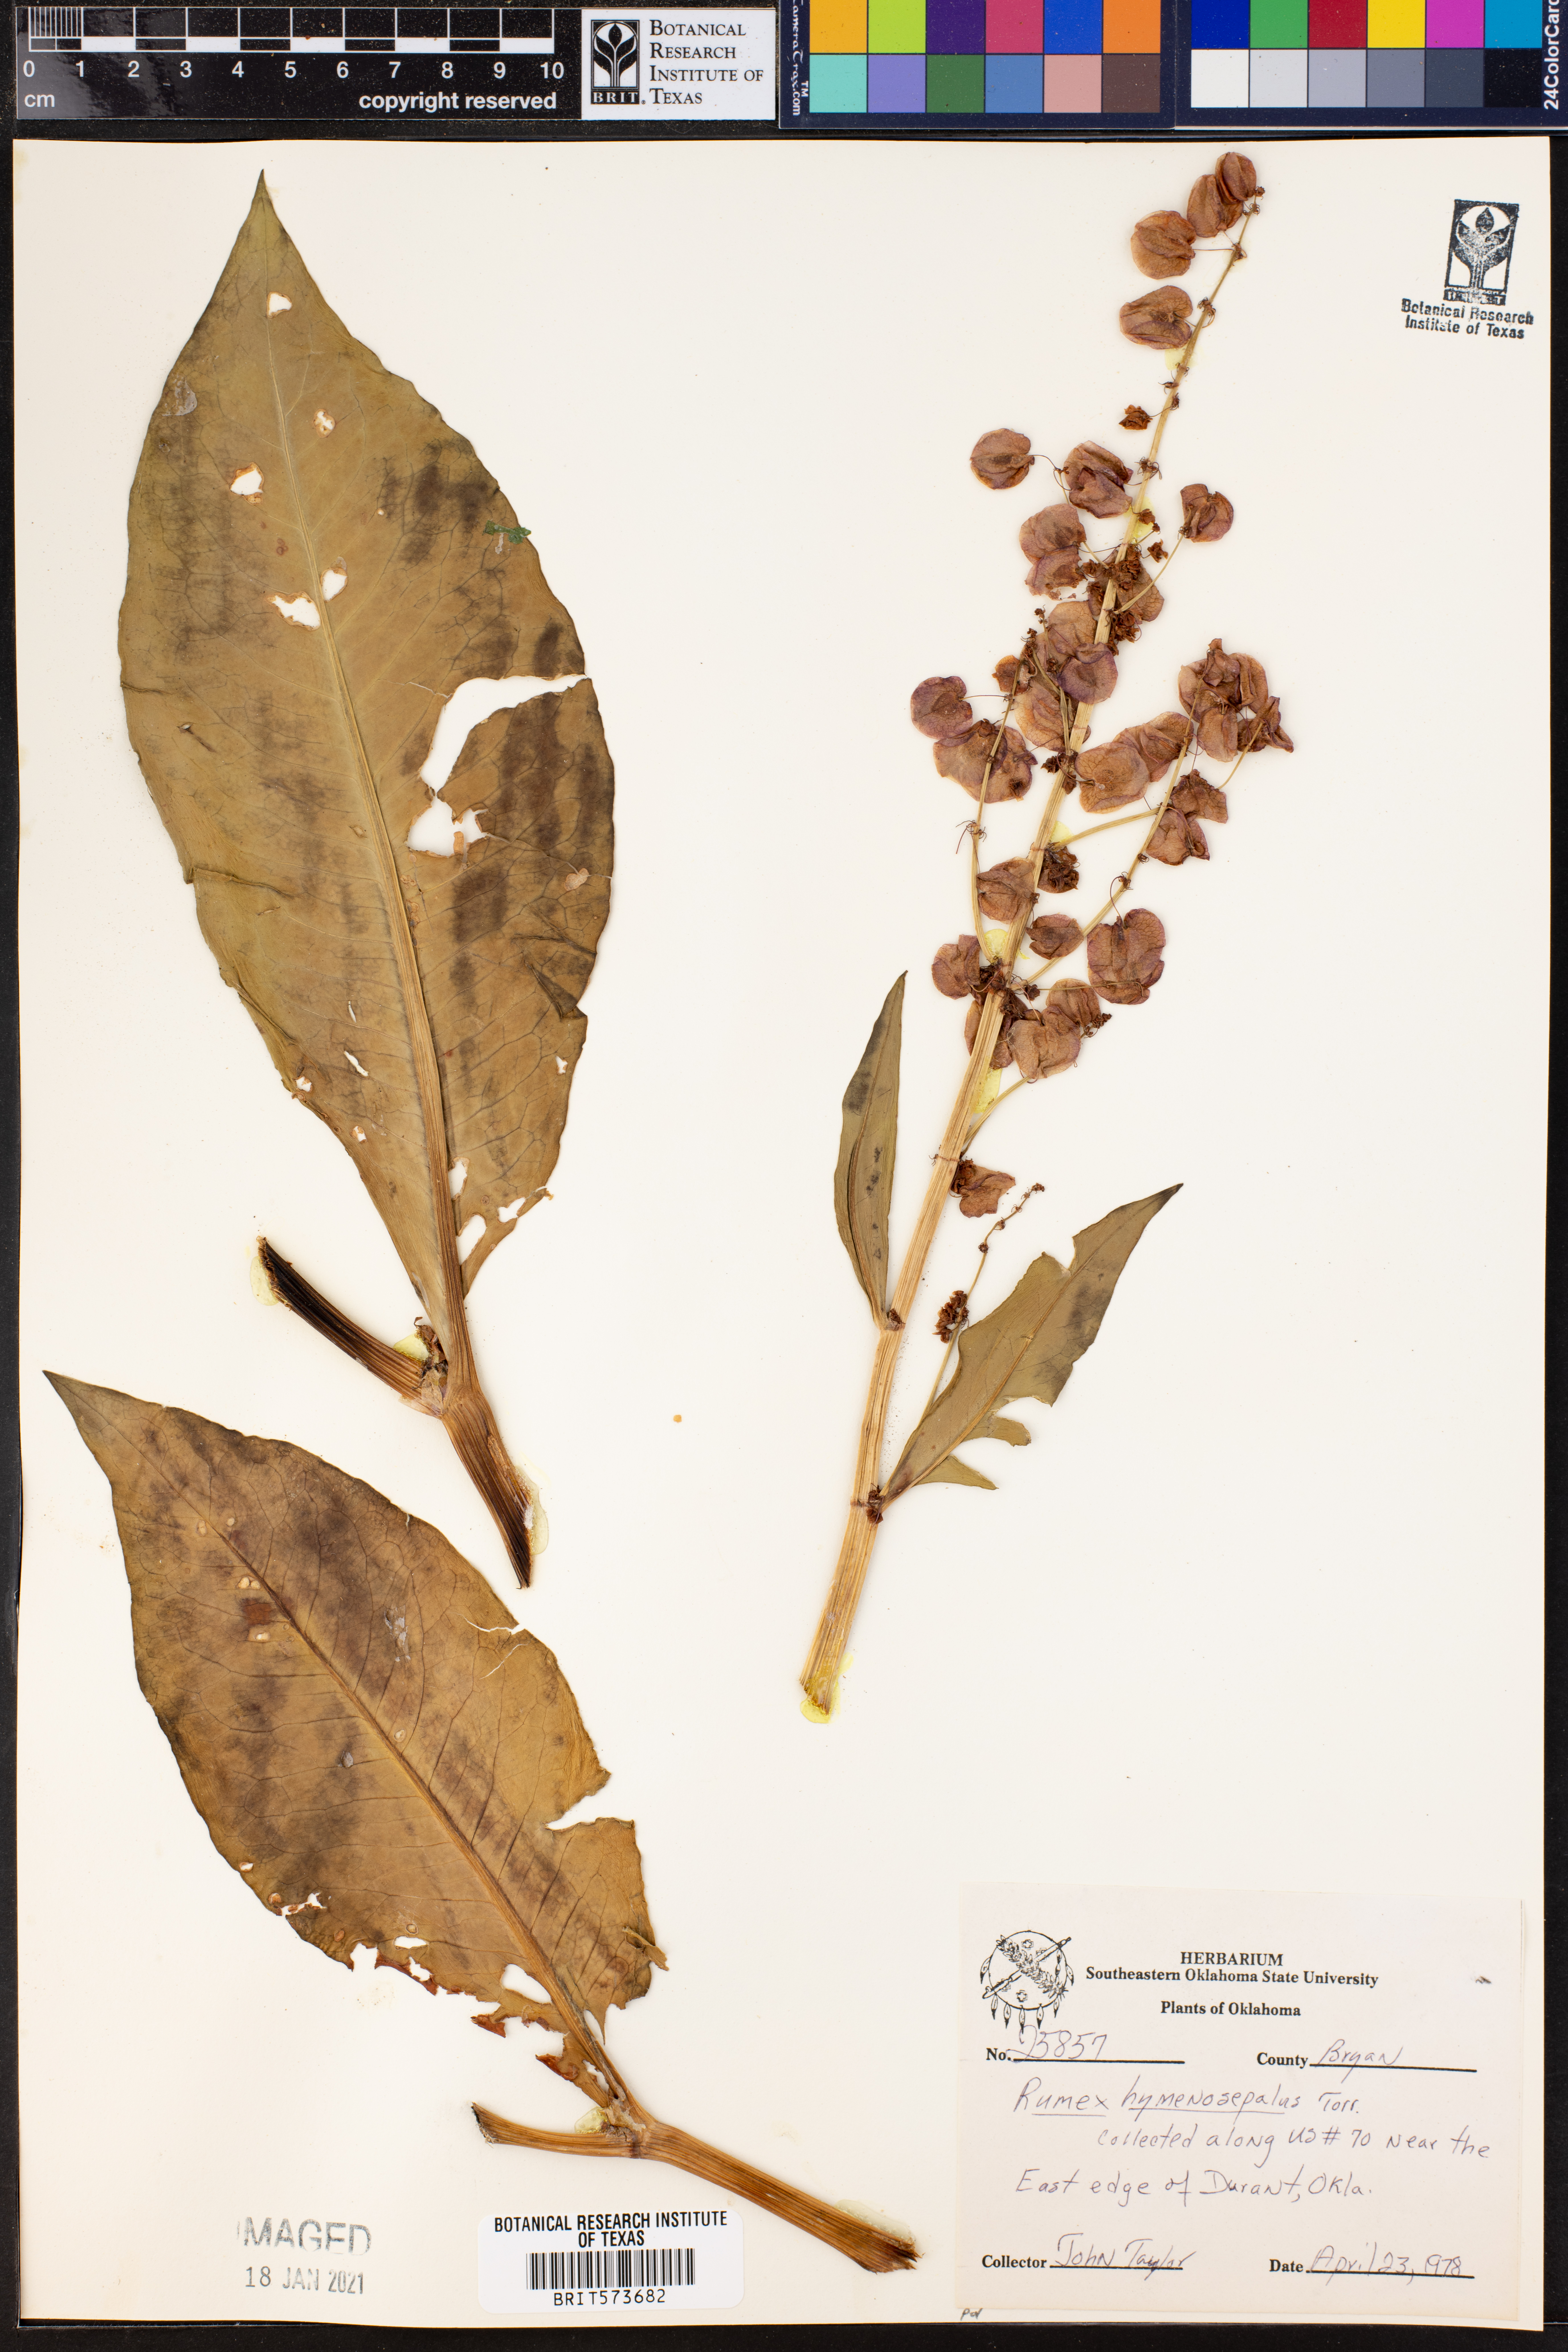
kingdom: Plantae
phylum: Tracheophyta
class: Magnoliopsida
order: Caryophyllales
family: Polygonaceae
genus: Rumex
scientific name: Rumex hymenosepalus
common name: Ganagra
